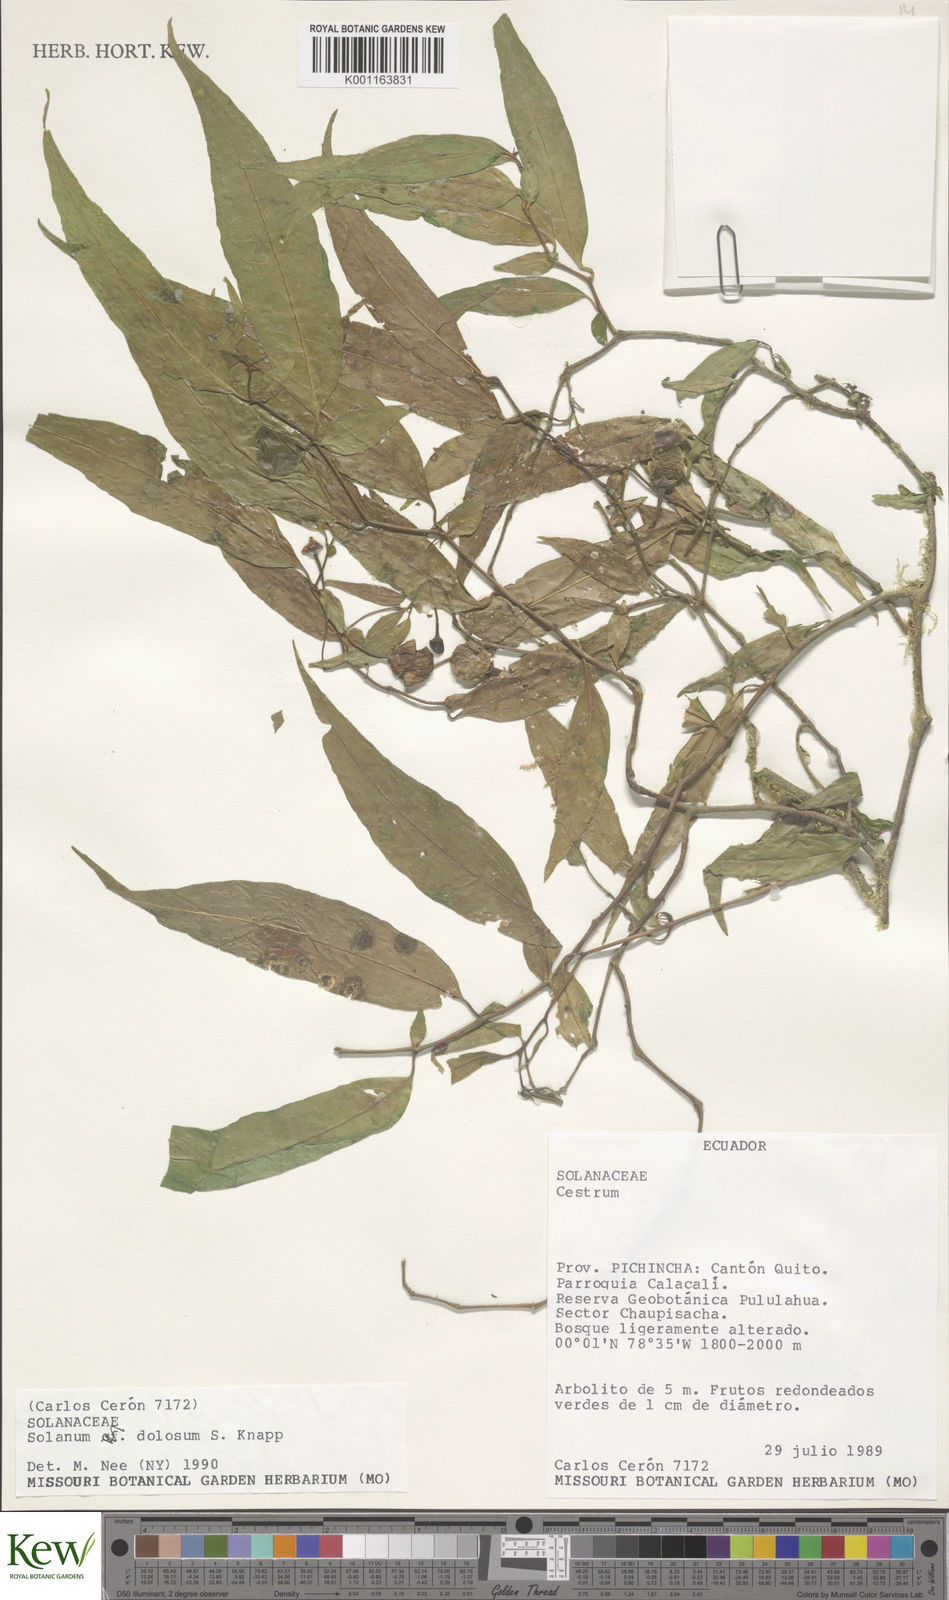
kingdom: Plantae
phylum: Tracheophyta
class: Magnoliopsida
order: Solanales
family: Solanaceae
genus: Solanum
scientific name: Solanum dolosum
